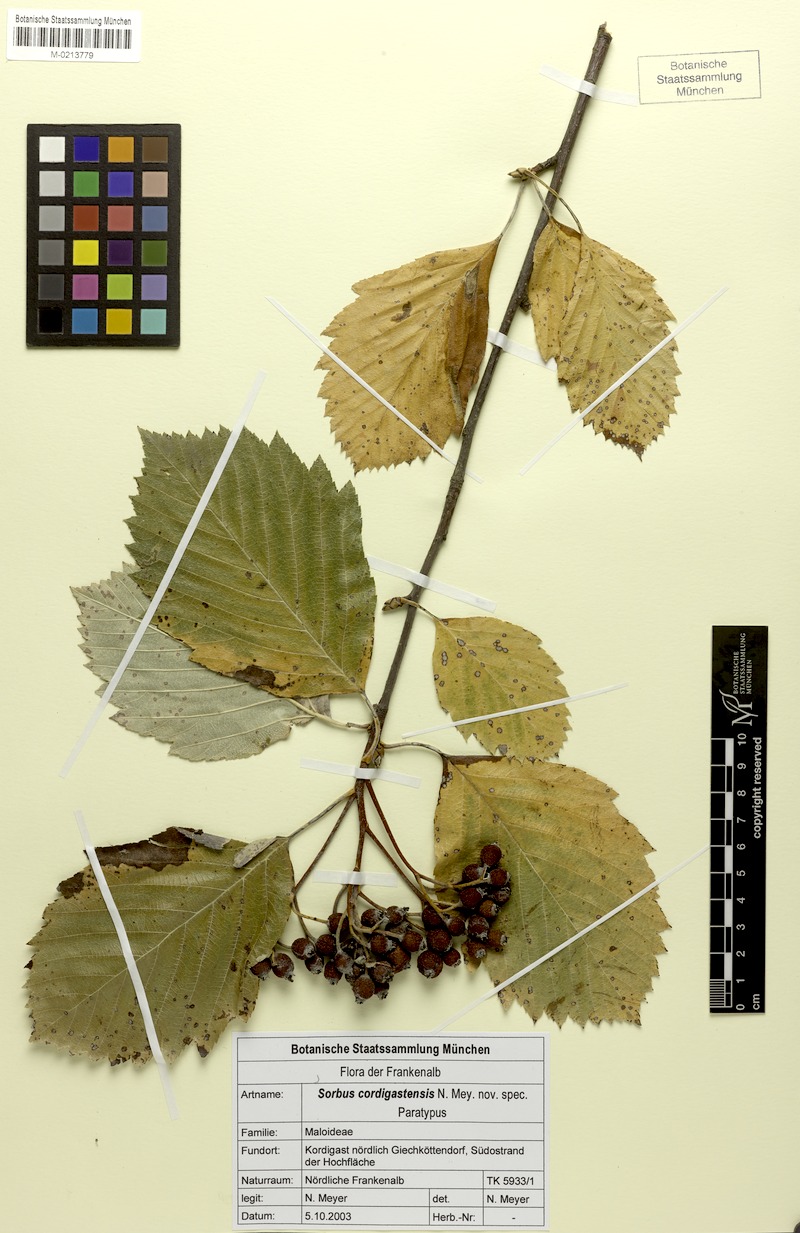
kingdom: Plantae
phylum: Tracheophyta
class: Magnoliopsida
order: Rosales
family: Rosaceae
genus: Karpatiosorbus
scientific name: Karpatiosorbus cordigastensis
